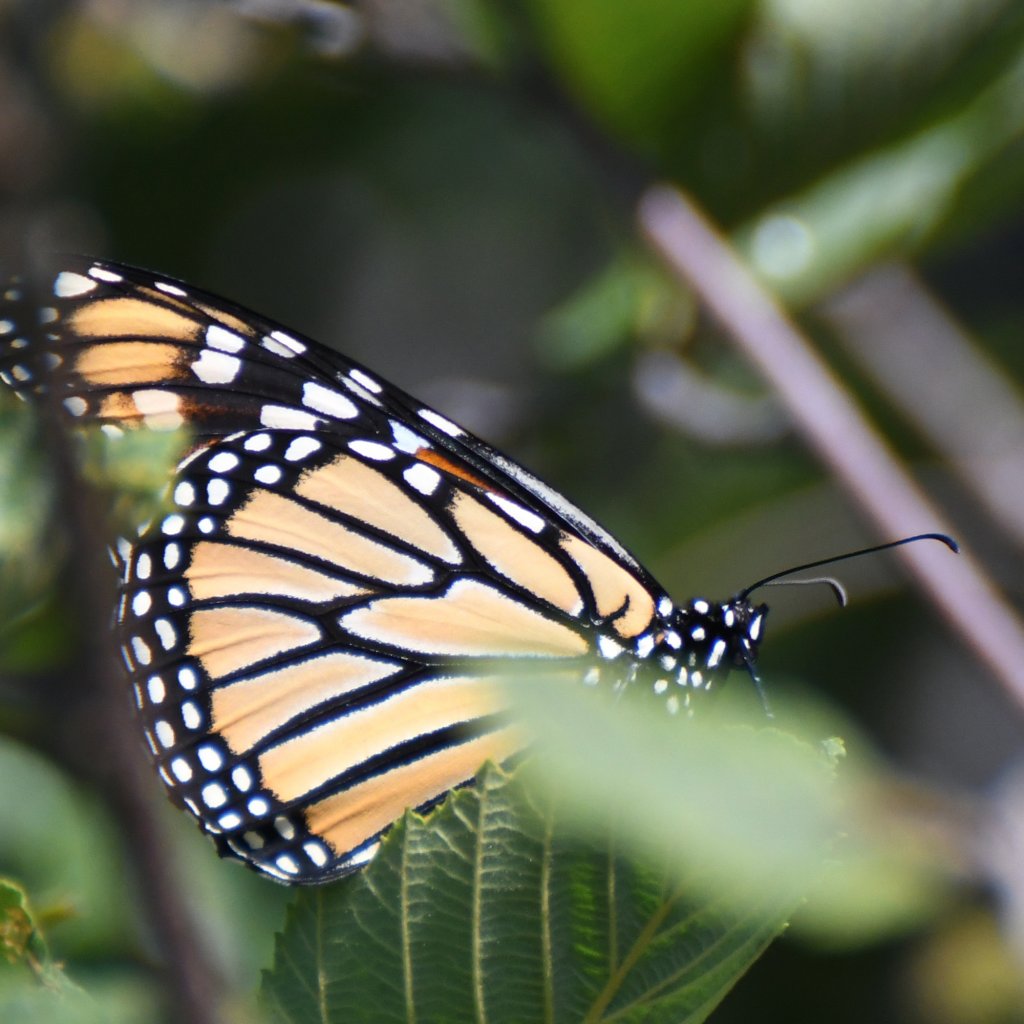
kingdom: Animalia
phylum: Arthropoda
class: Insecta
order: Lepidoptera
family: Nymphalidae
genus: Danaus
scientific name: Danaus plexippus
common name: Monarch
